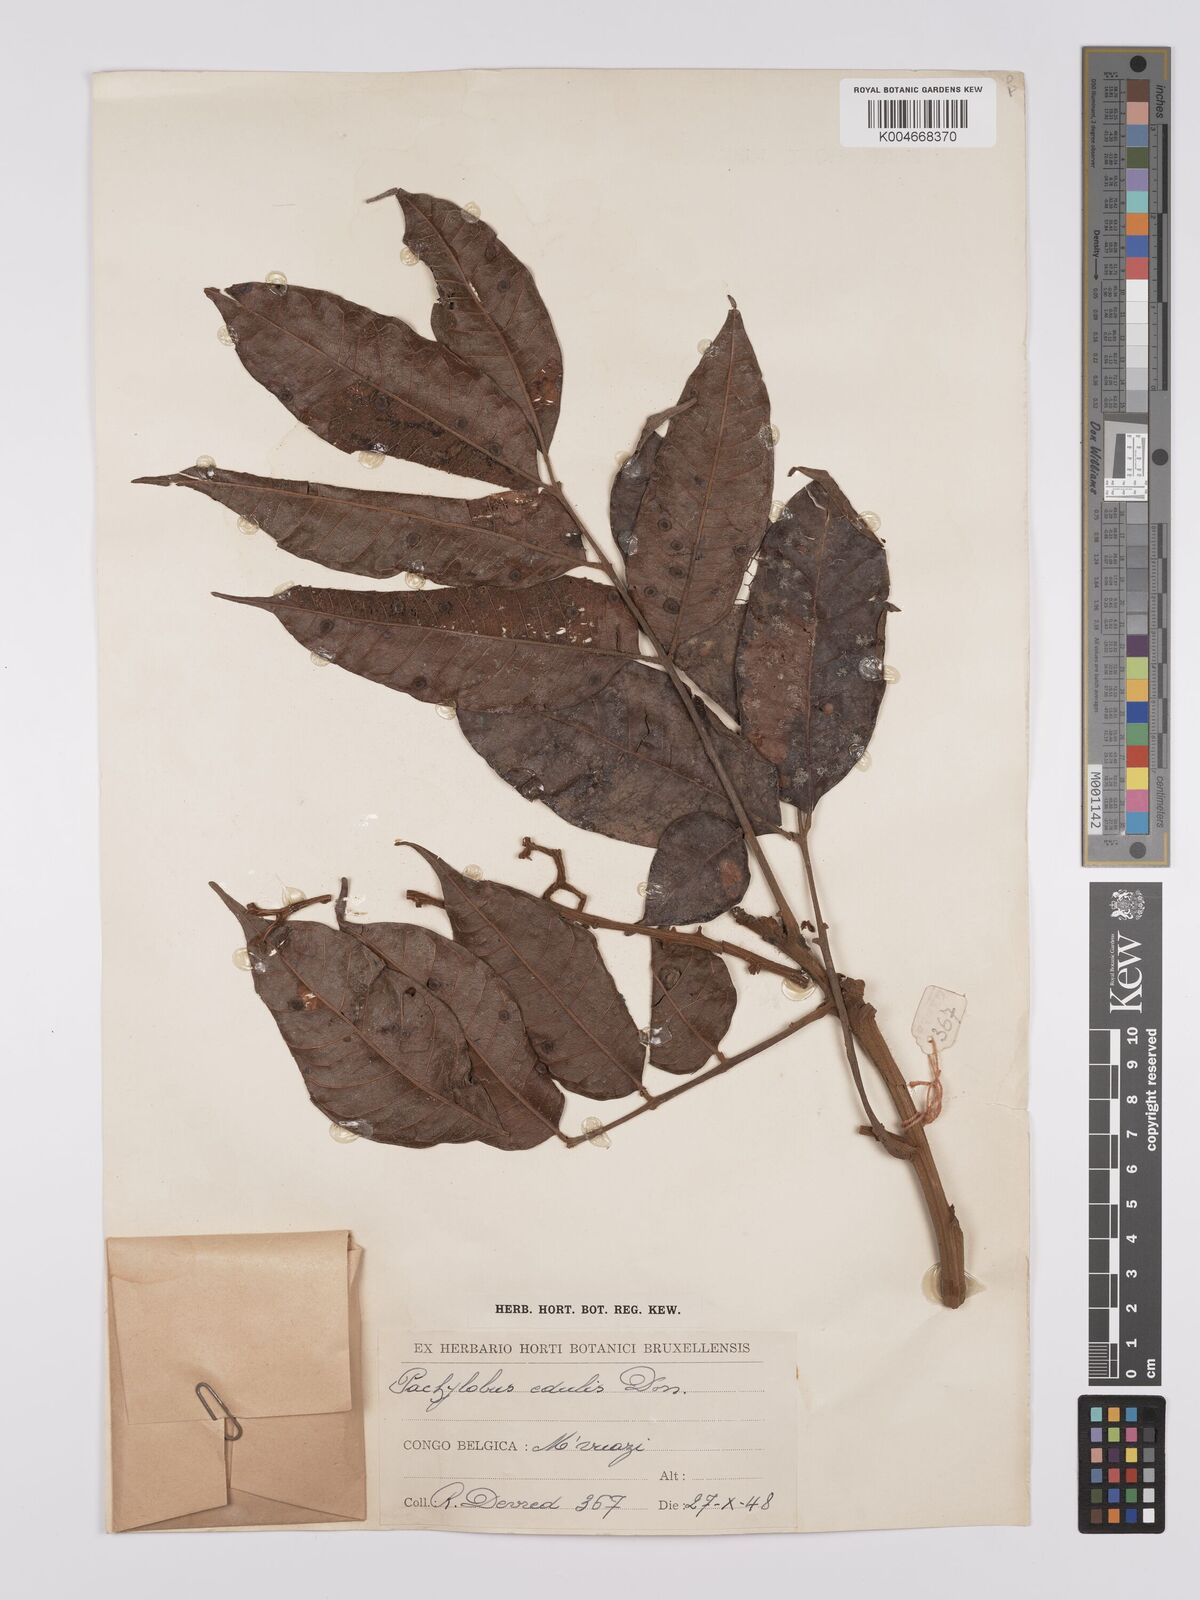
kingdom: Plantae
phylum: Tracheophyta
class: Magnoliopsida
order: Sapindales
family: Burseraceae
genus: Pachylobus
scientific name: Pachylobus edulis
